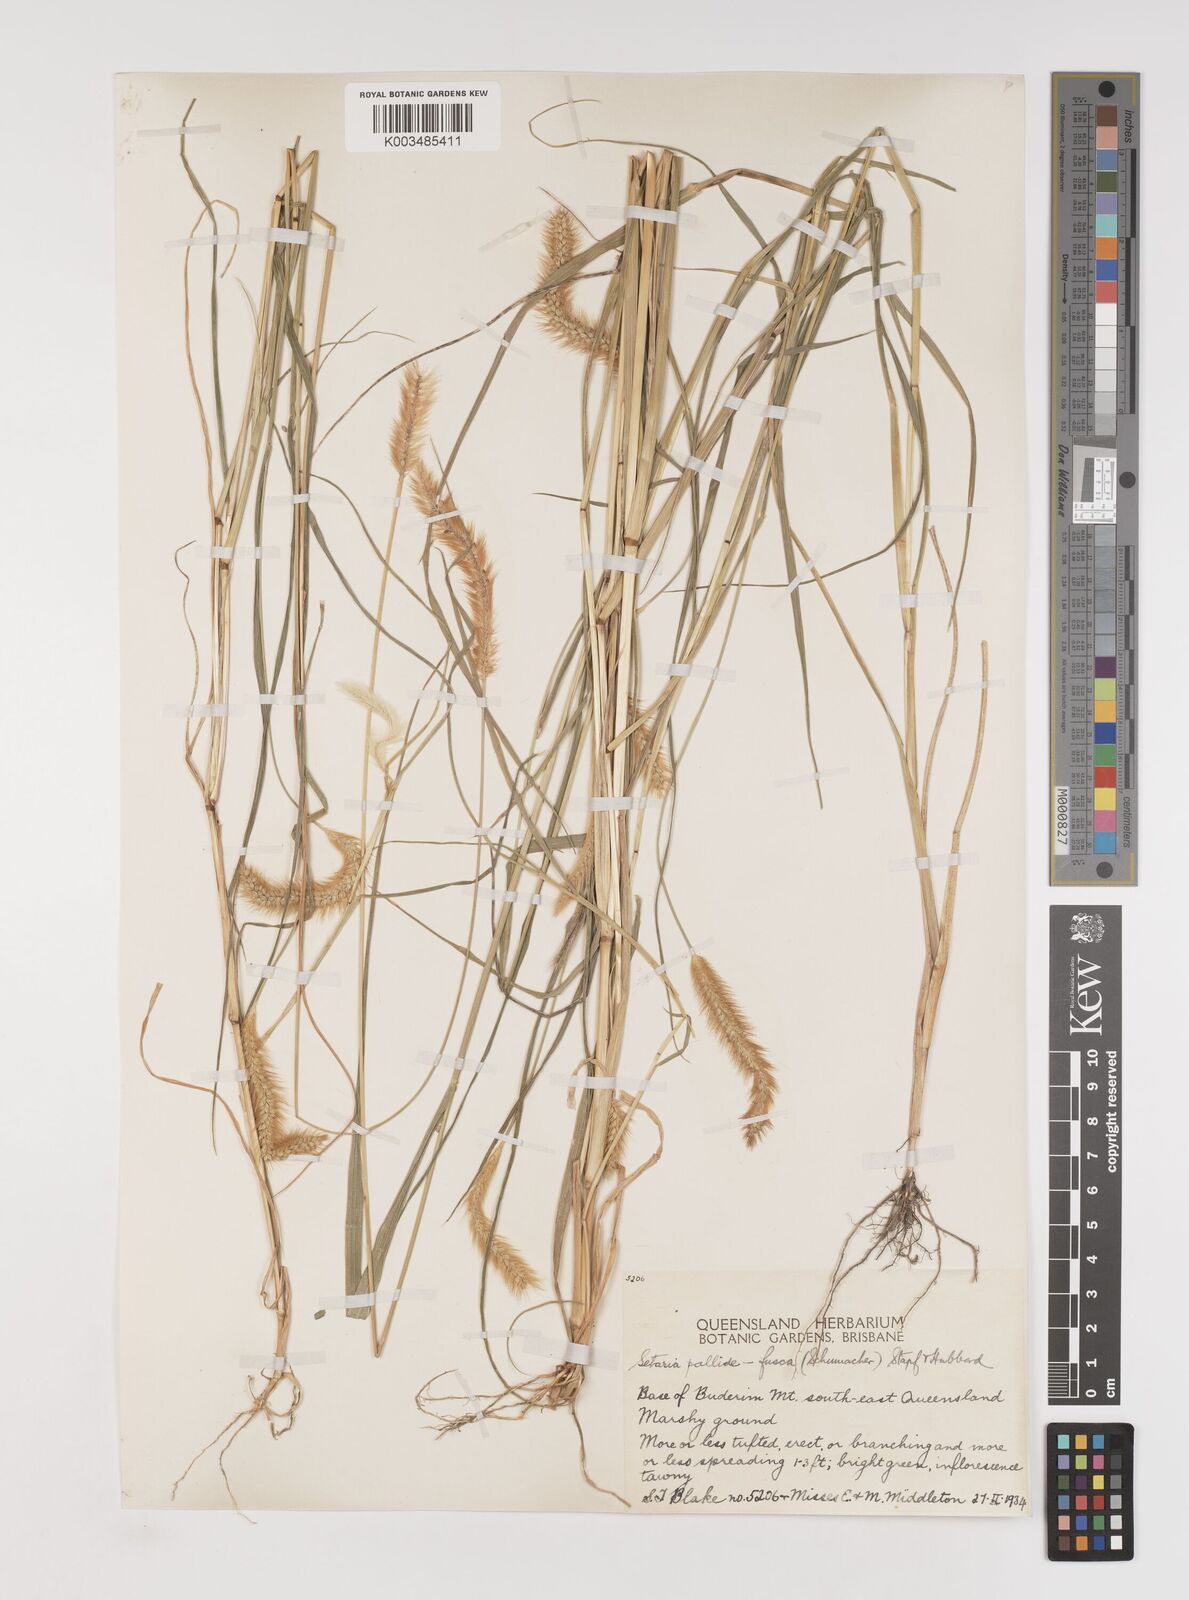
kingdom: Plantae
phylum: Tracheophyta
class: Liliopsida
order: Poales
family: Poaceae
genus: Setaria
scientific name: Setaria pumila
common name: Yellow bristle-grass
